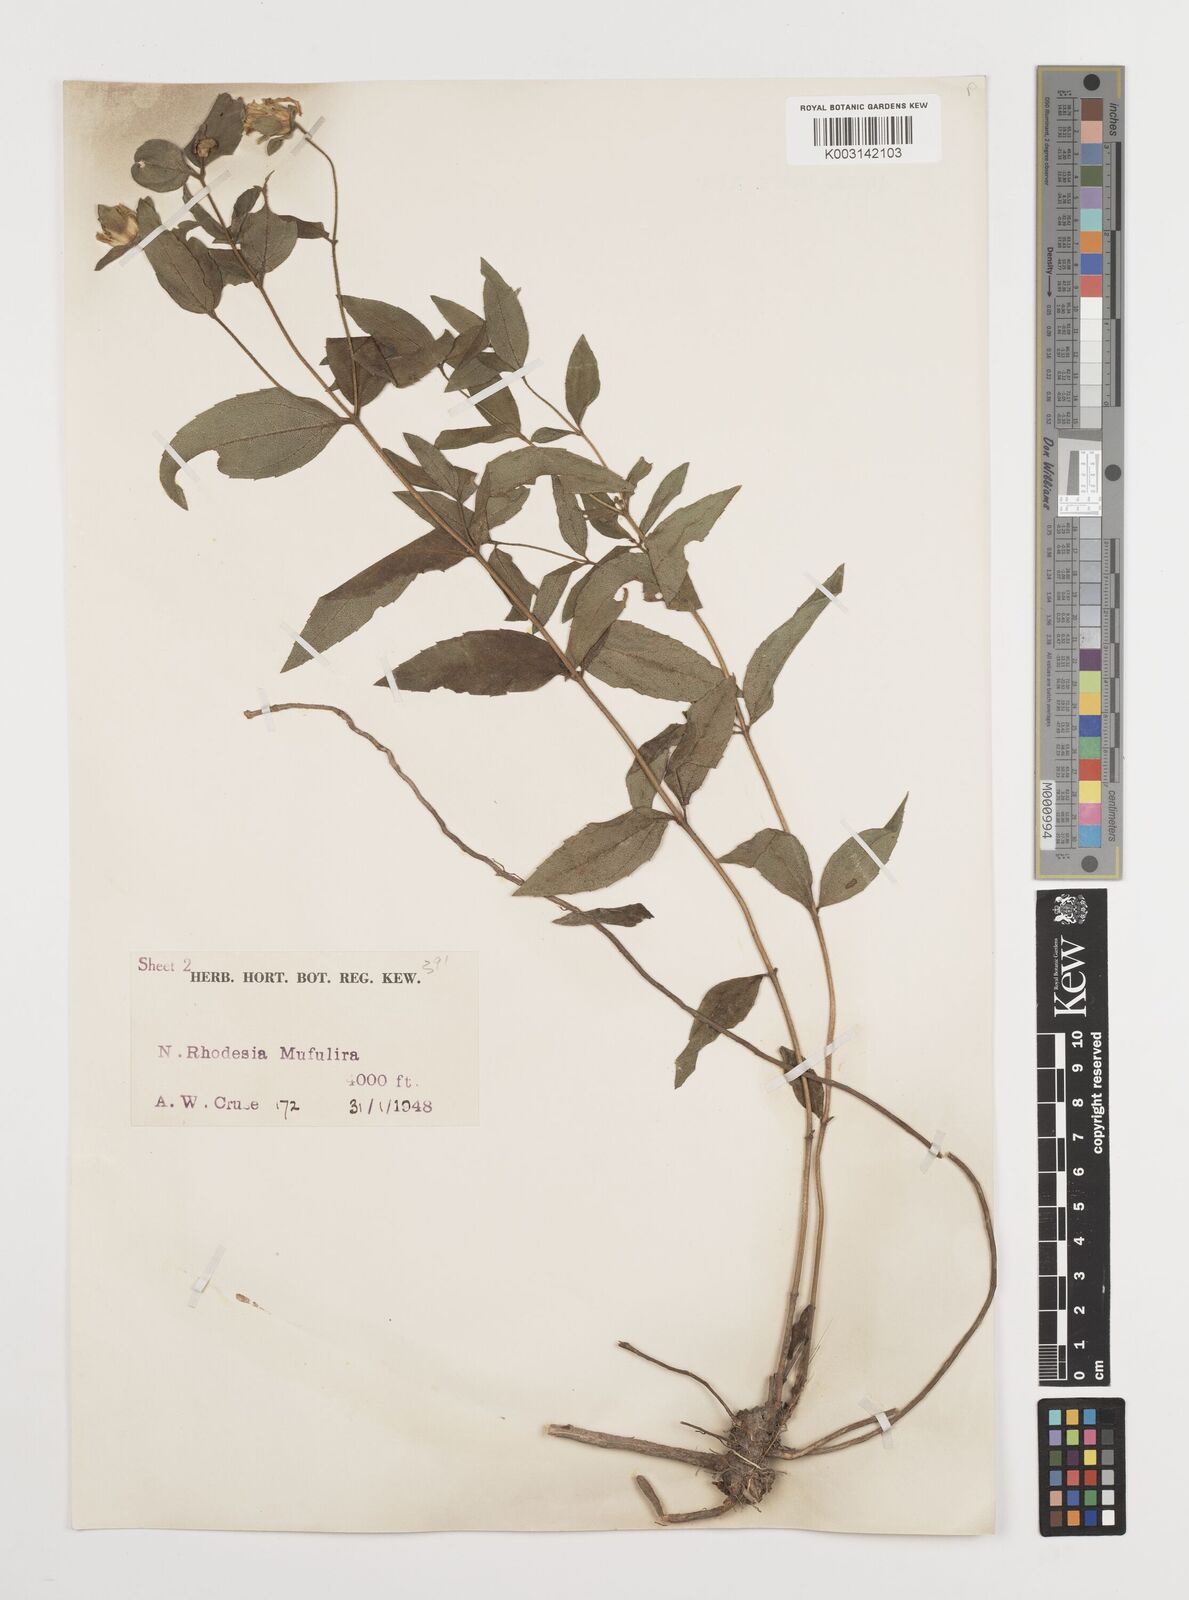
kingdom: Plantae
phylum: Tracheophyta
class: Magnoliopsida
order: Asterales
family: Asteraceae
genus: Aspilia
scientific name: Aspilia angolensis
